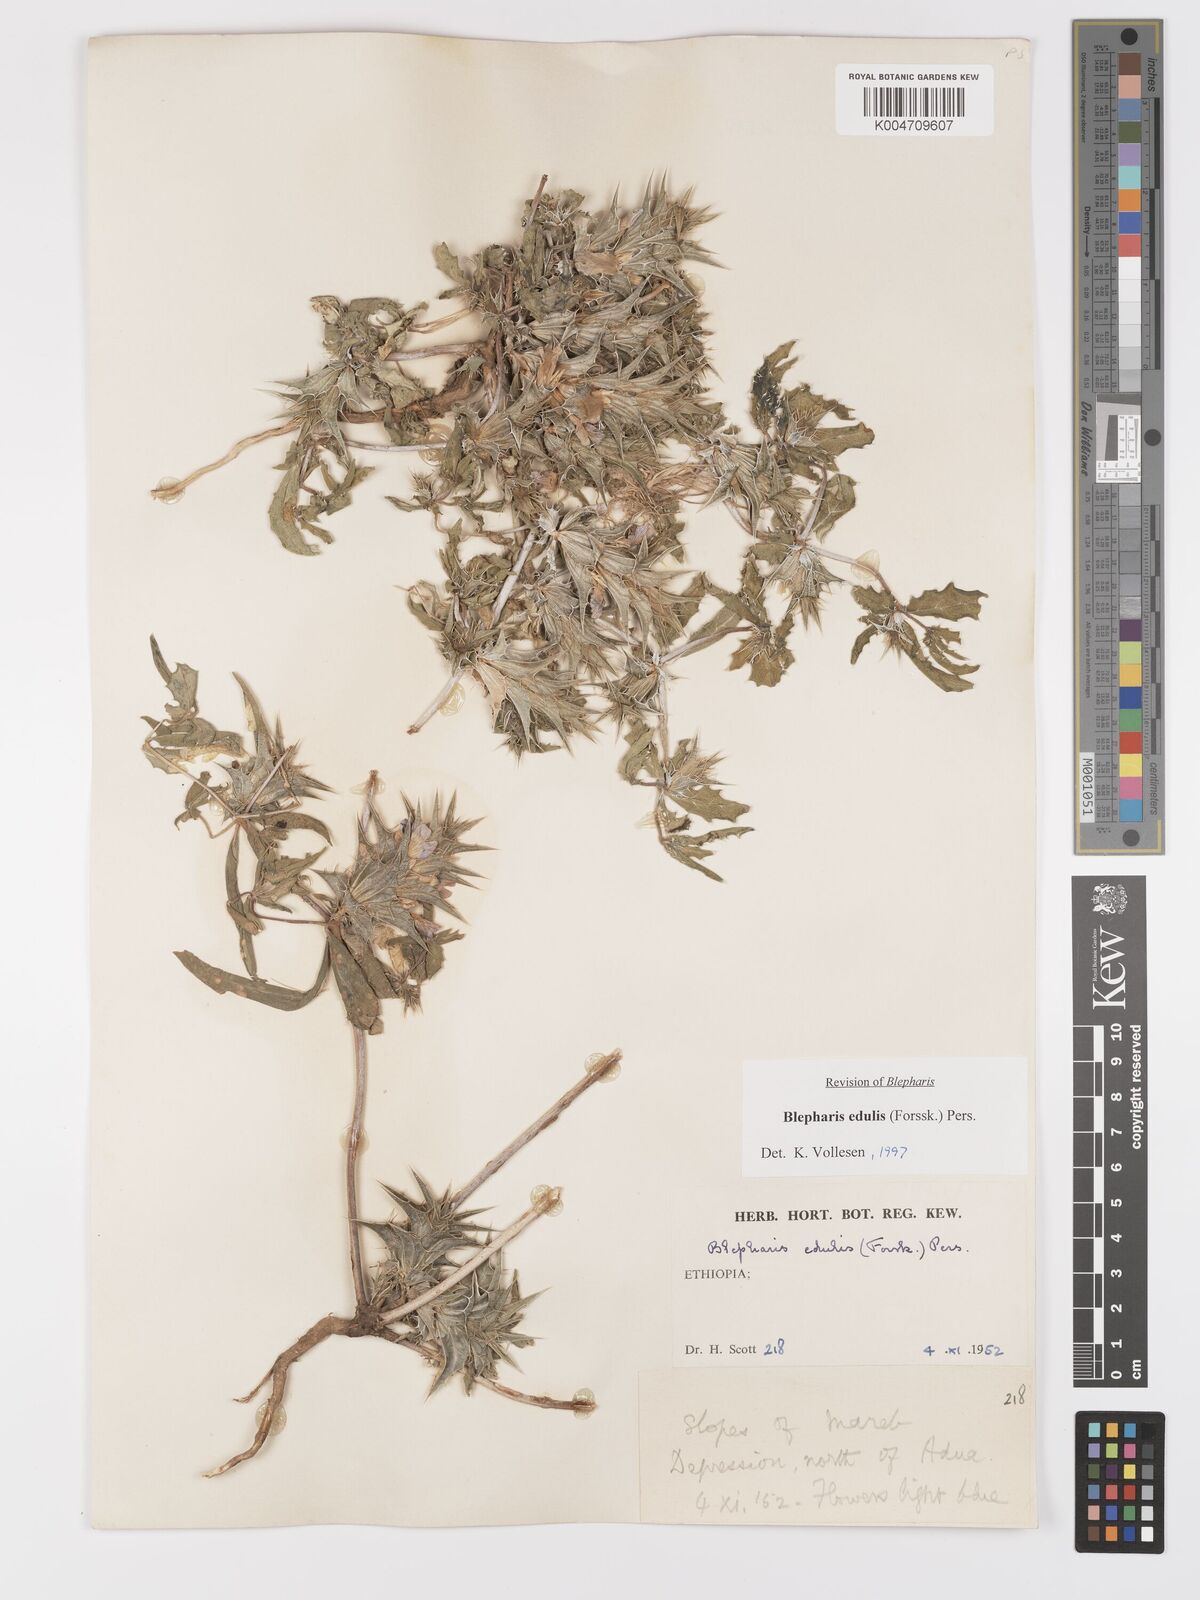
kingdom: Plantae
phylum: Tracheophyta
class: Magnoliopsida
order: Lamiales
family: Acanthaceae
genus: Blepharis
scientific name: Blepharis edulis
